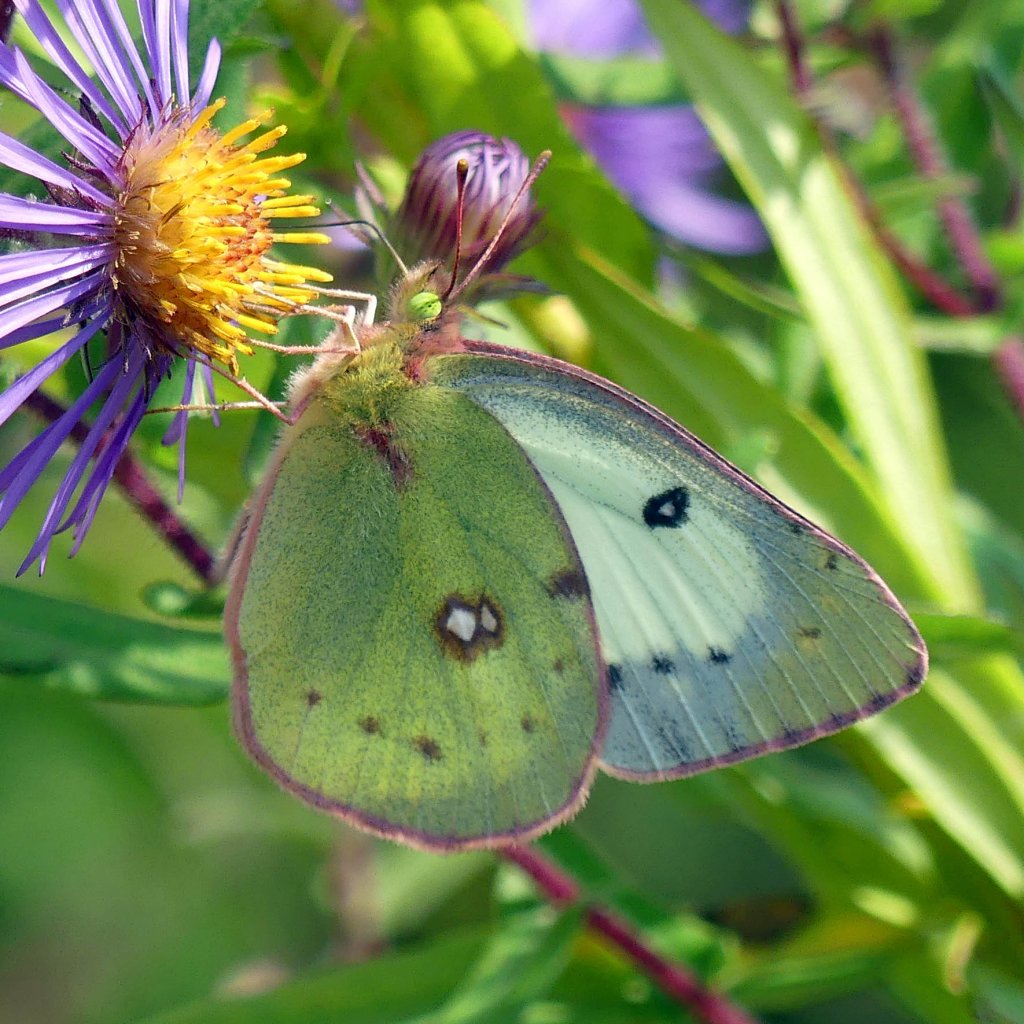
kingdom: Animalia
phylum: Arthropoda
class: Insecta
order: Lepidoptera
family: Pieridae
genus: Colias
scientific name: Colias philodice
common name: Clouded Sulphur
